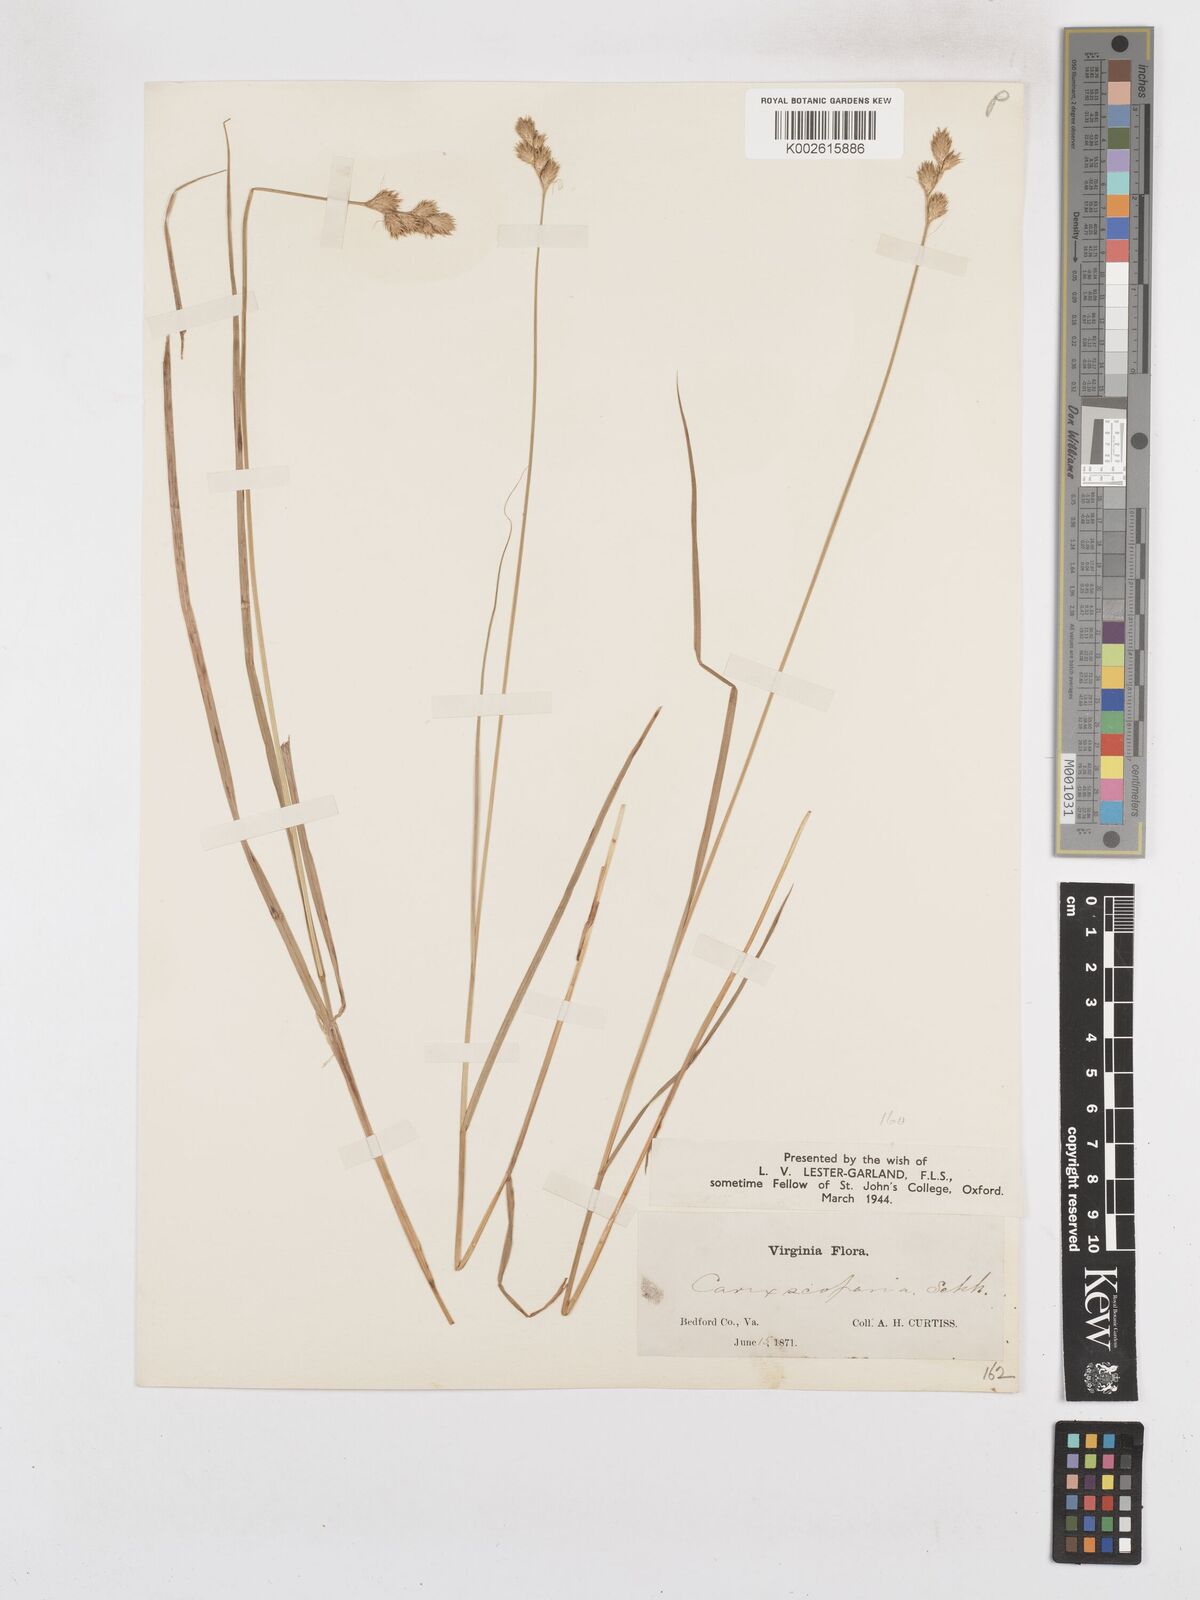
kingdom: Plantae
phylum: Tracheophyta
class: Liliopsida
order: Poales
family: Cyperaceae
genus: Carex
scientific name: Carex crawfordii
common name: Crawford's sedge
